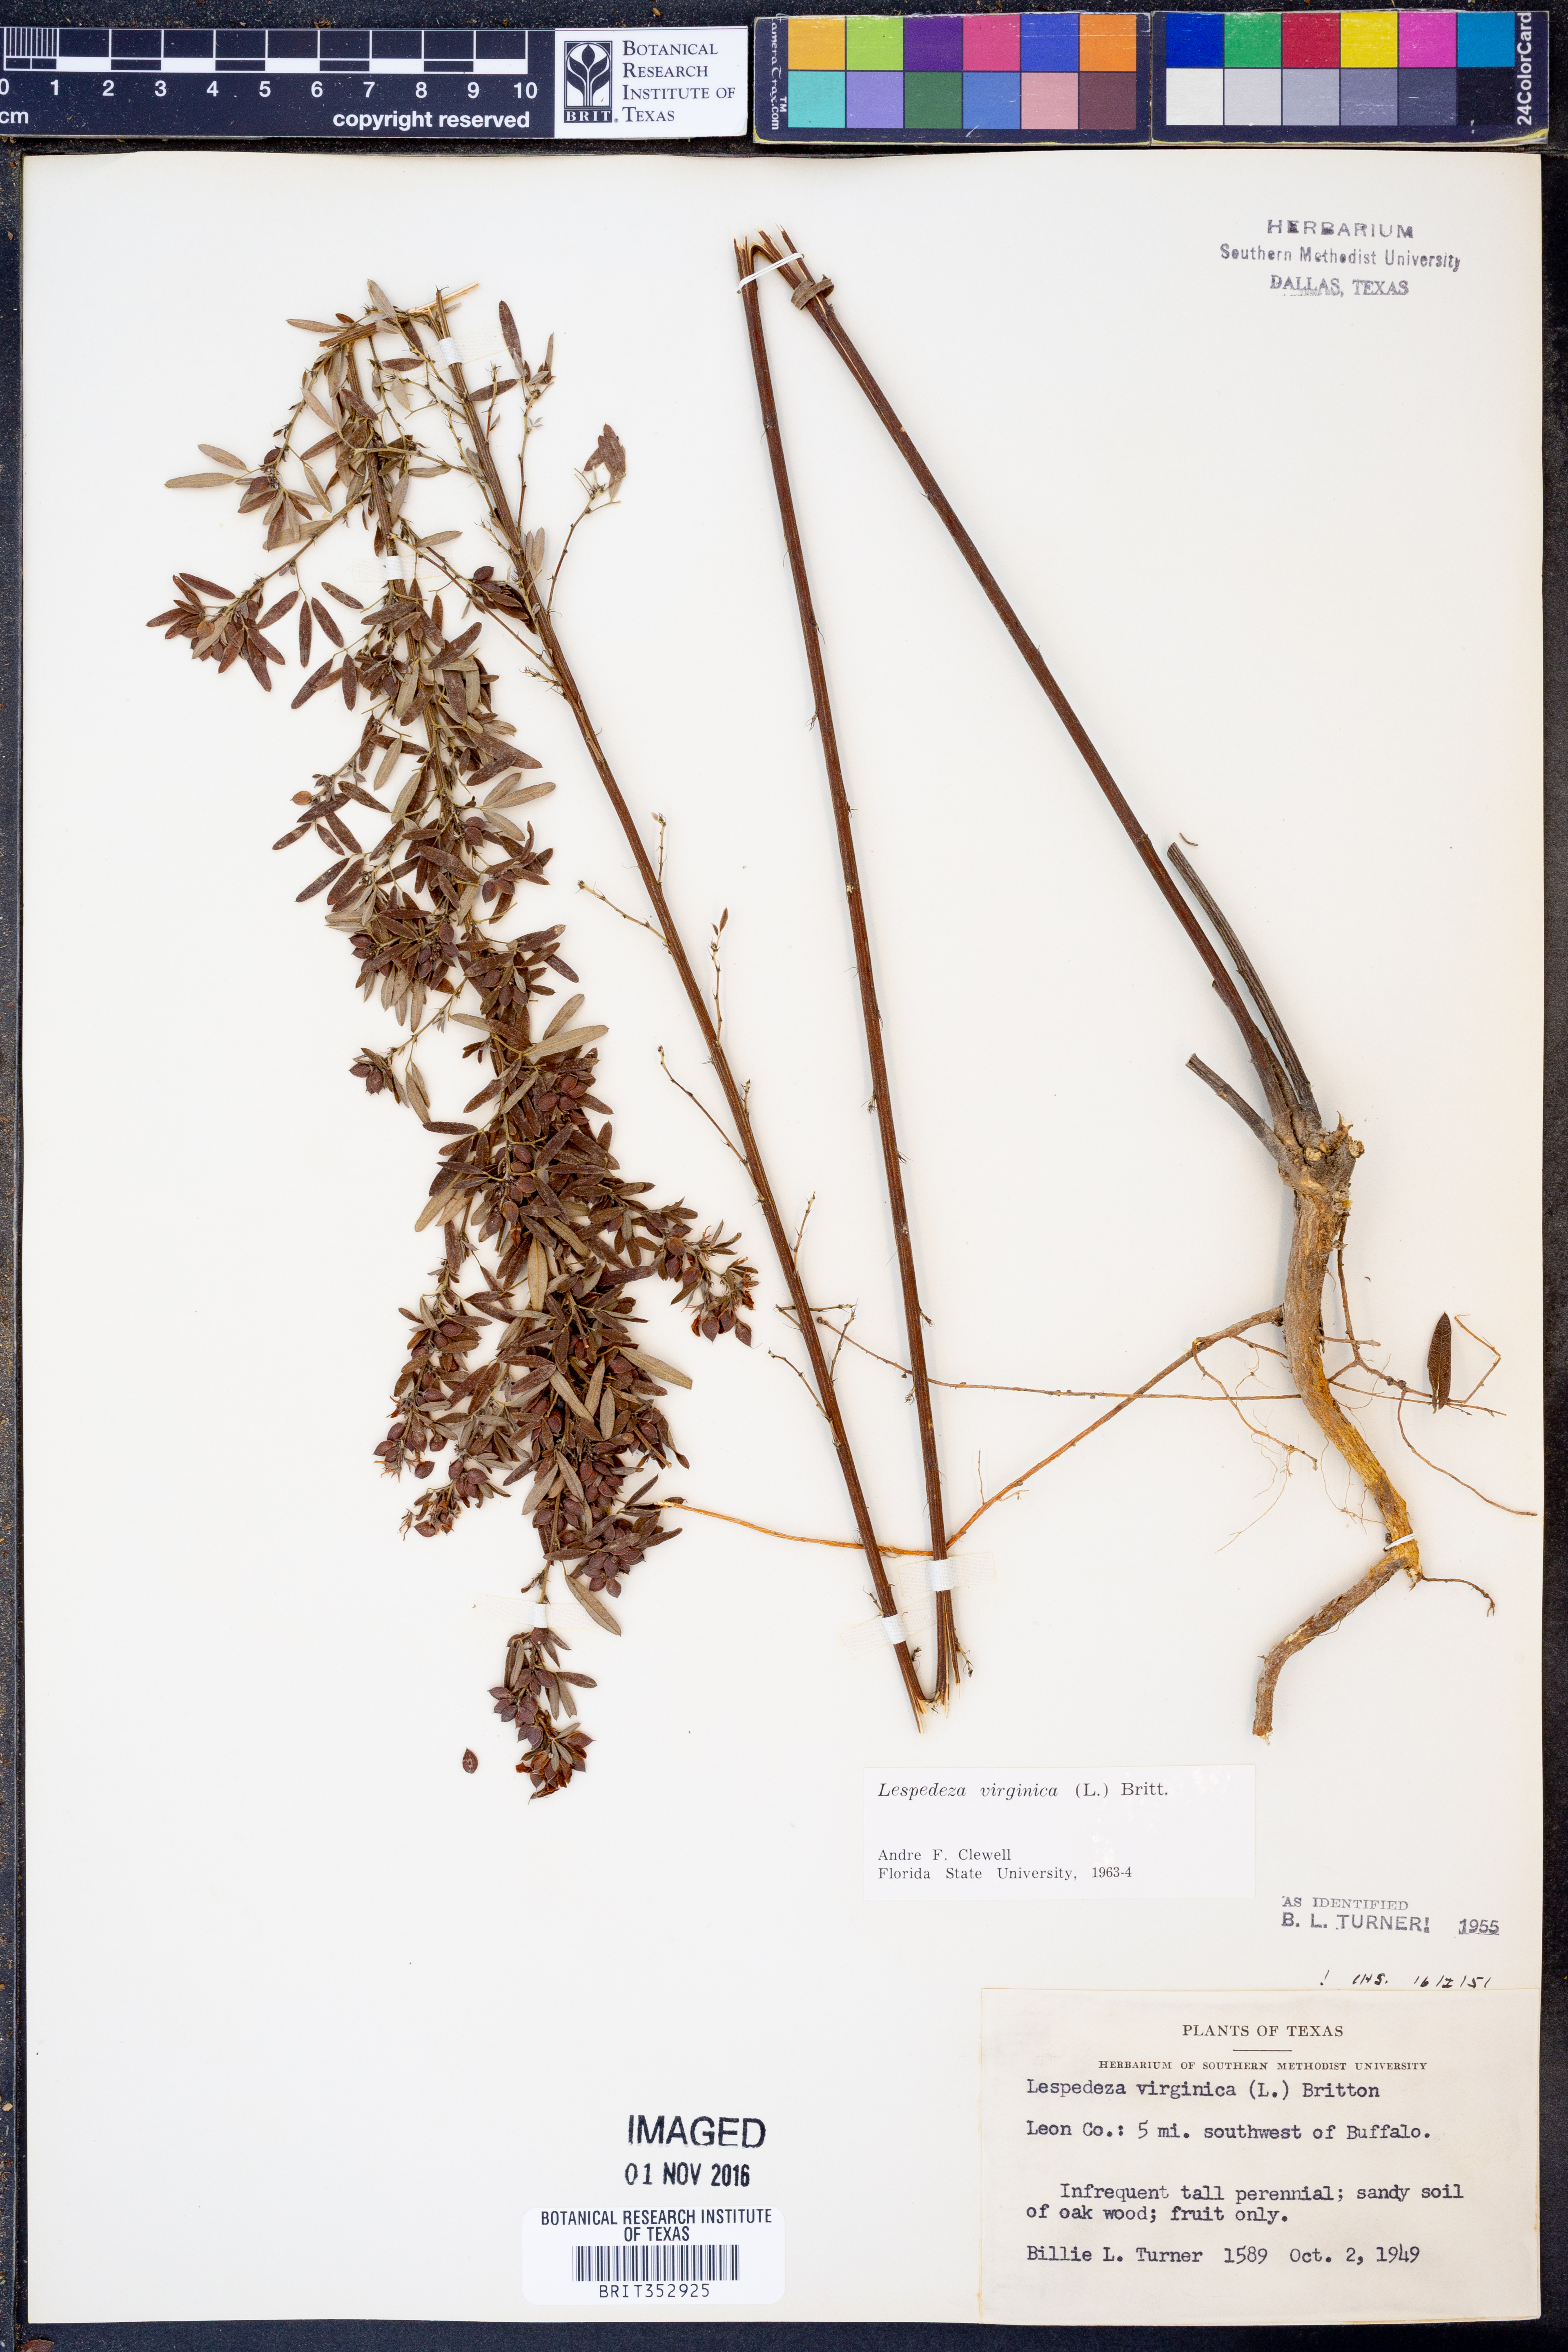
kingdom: Plantae
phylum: Tracheophyta
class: Magnoliopsida
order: Fabales
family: Fabaceae
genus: Lespedeza
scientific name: Lespedeza virginica
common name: Slender bush-clover
